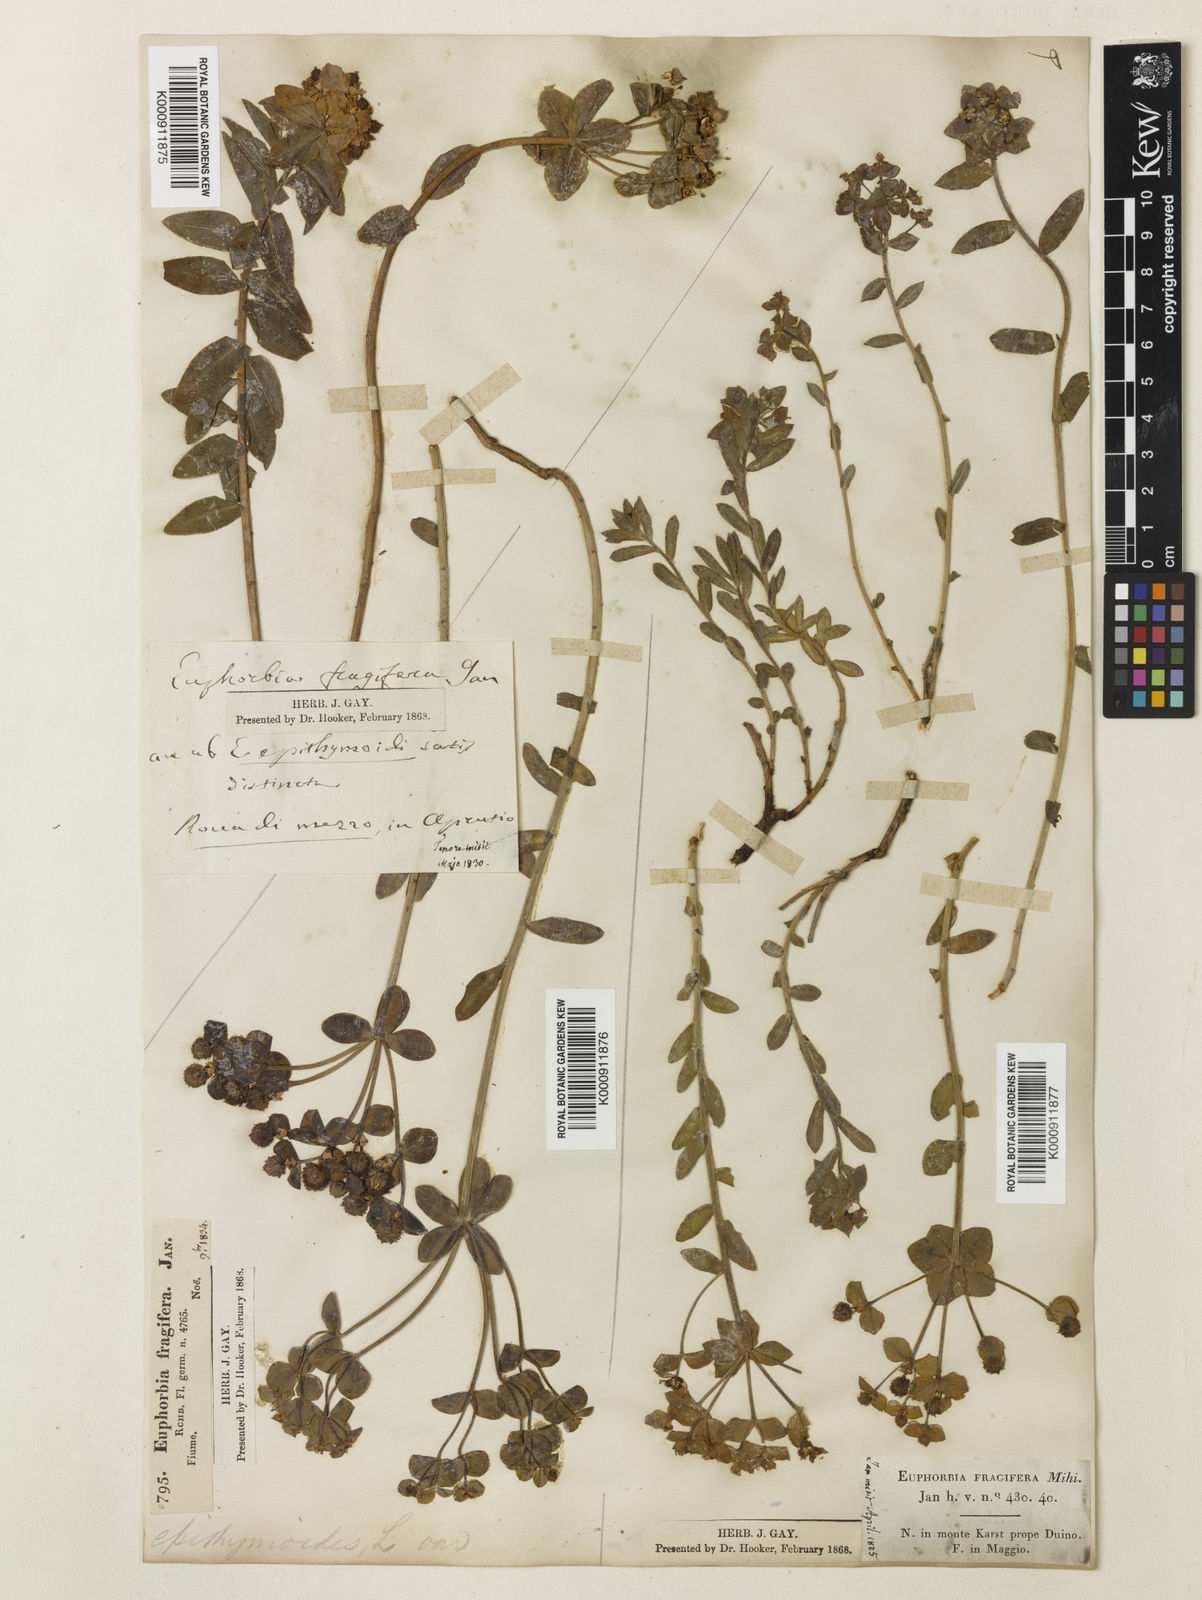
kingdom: Plantae
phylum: Tracheophyta
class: Magnoliopsida
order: Malpighiales
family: Euphorbiaceae
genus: Euphorbia
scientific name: Euphorbia fragifera
